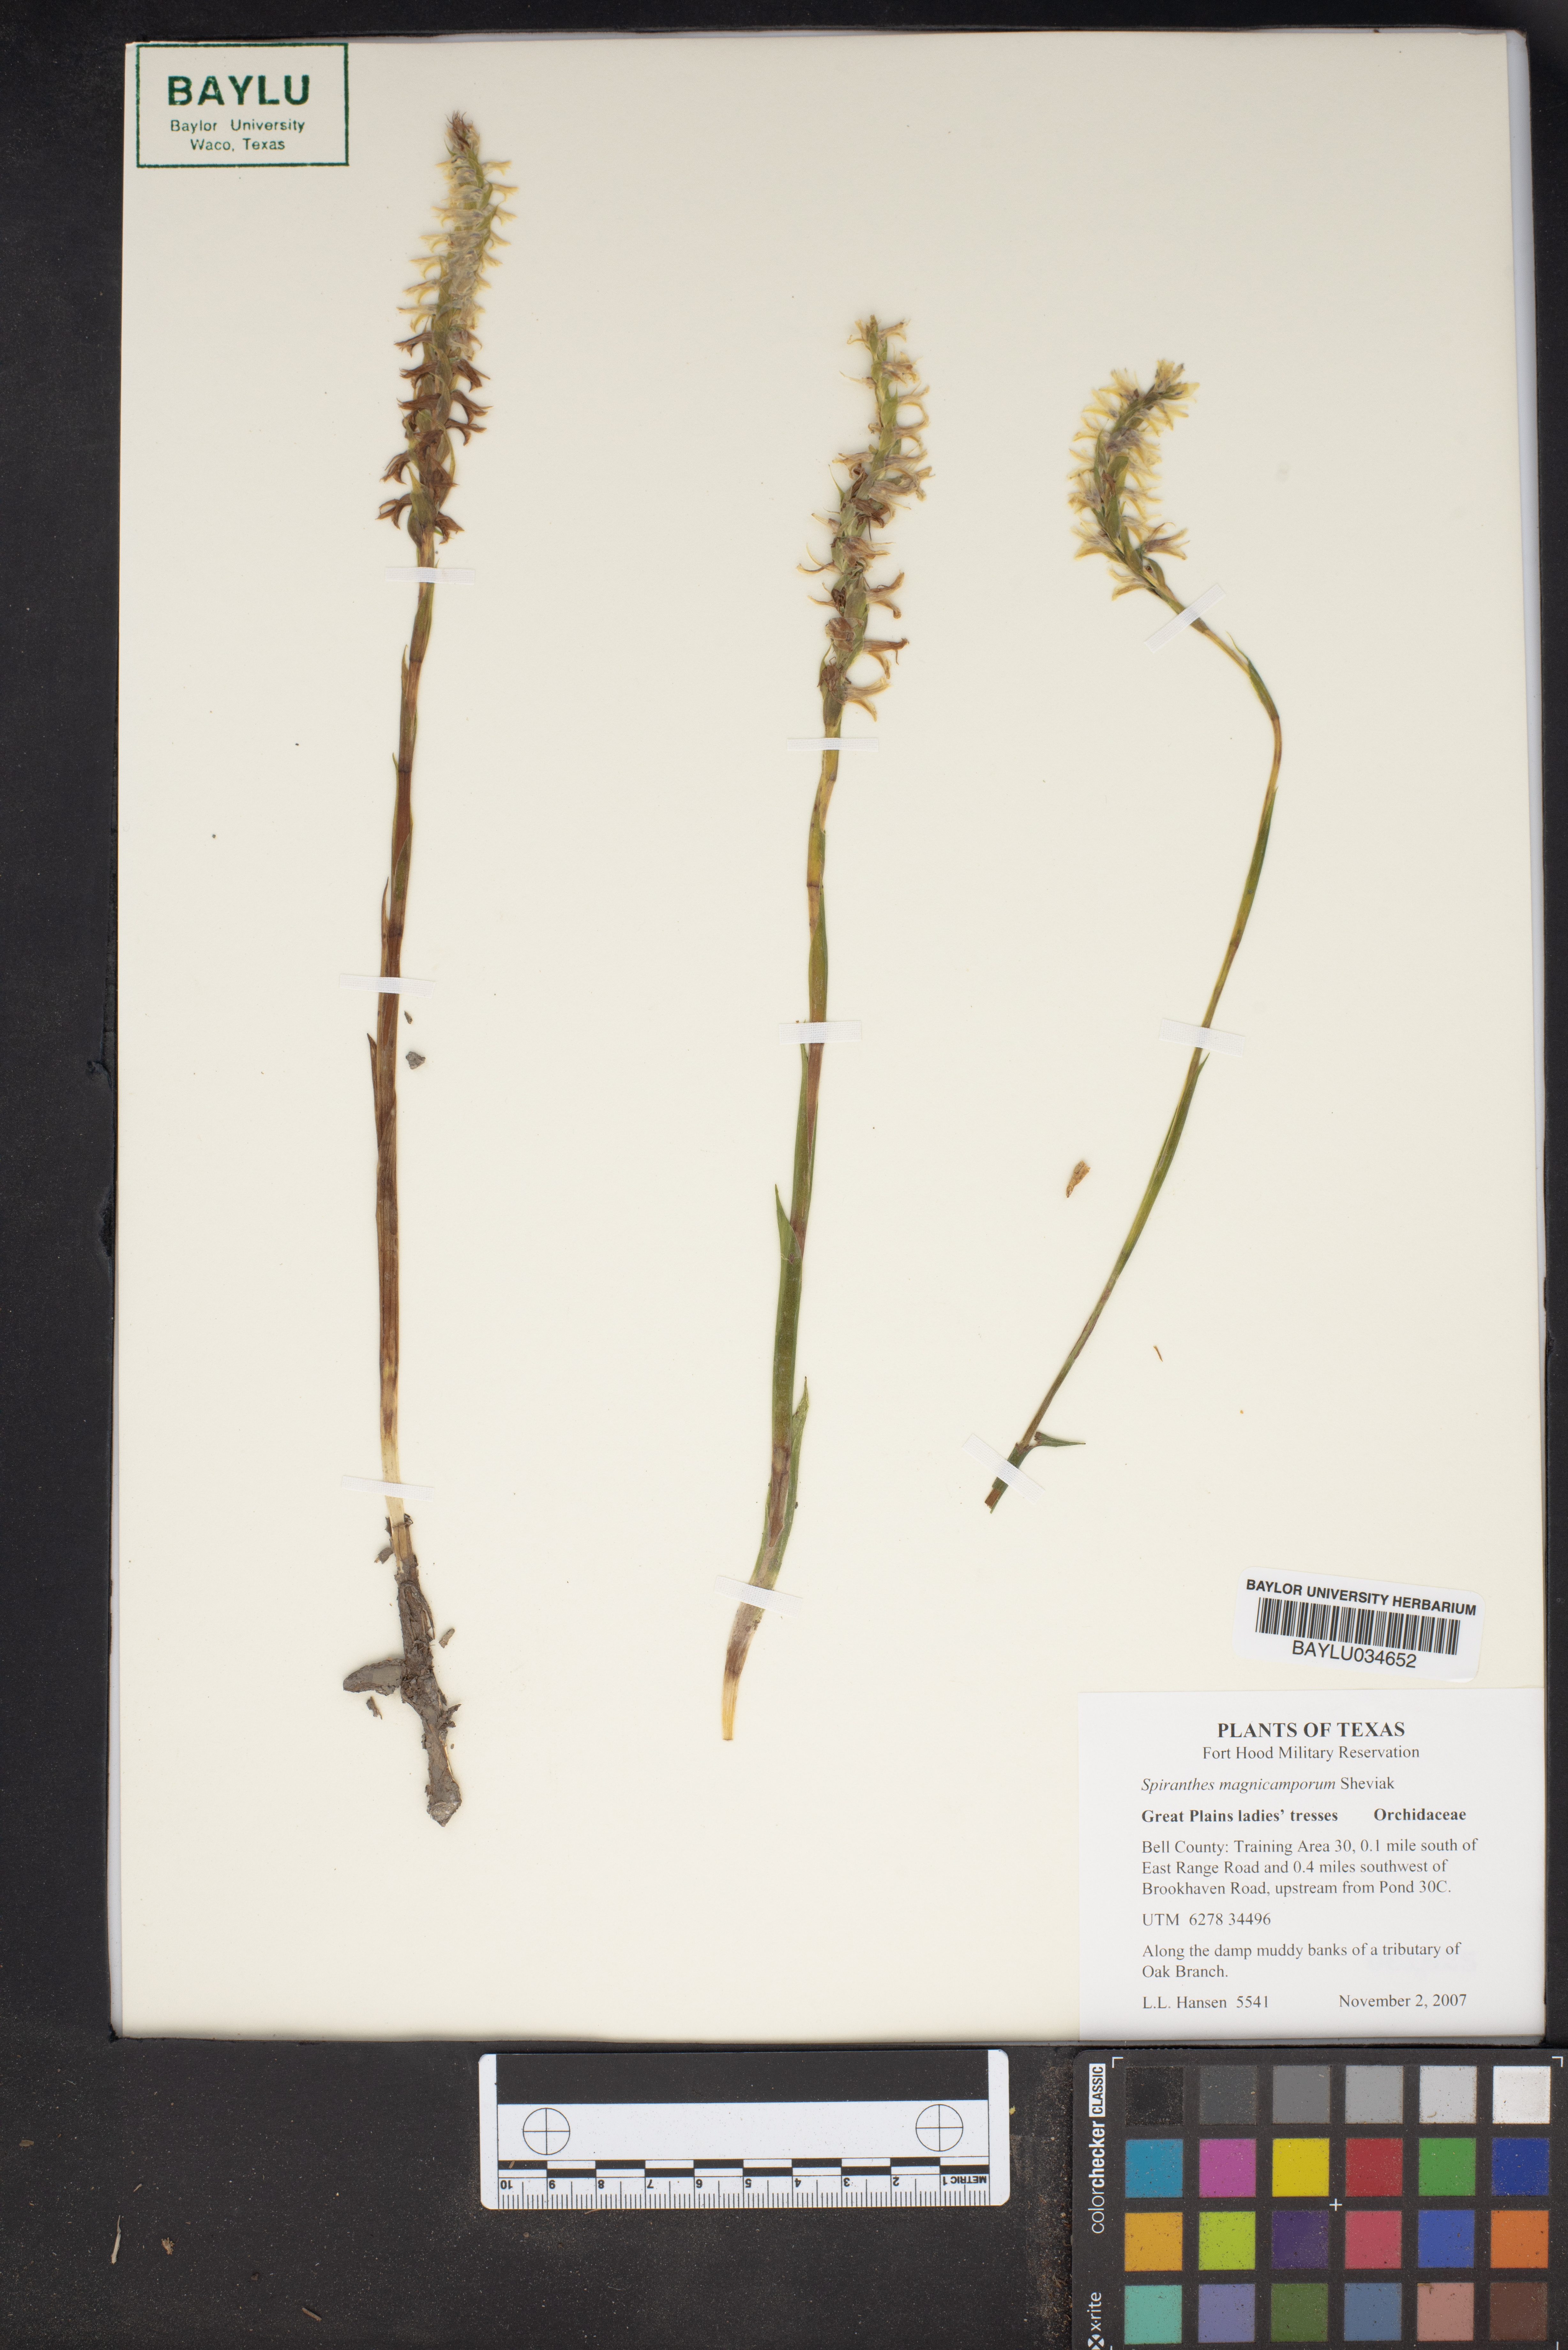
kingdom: Plantae
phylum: Tracheophyta
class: Liliopsida
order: Asparagales
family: Orchidaceae
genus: Spiranthes
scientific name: Spiranthes magnicamporum
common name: Great plains ladies'-tresses
